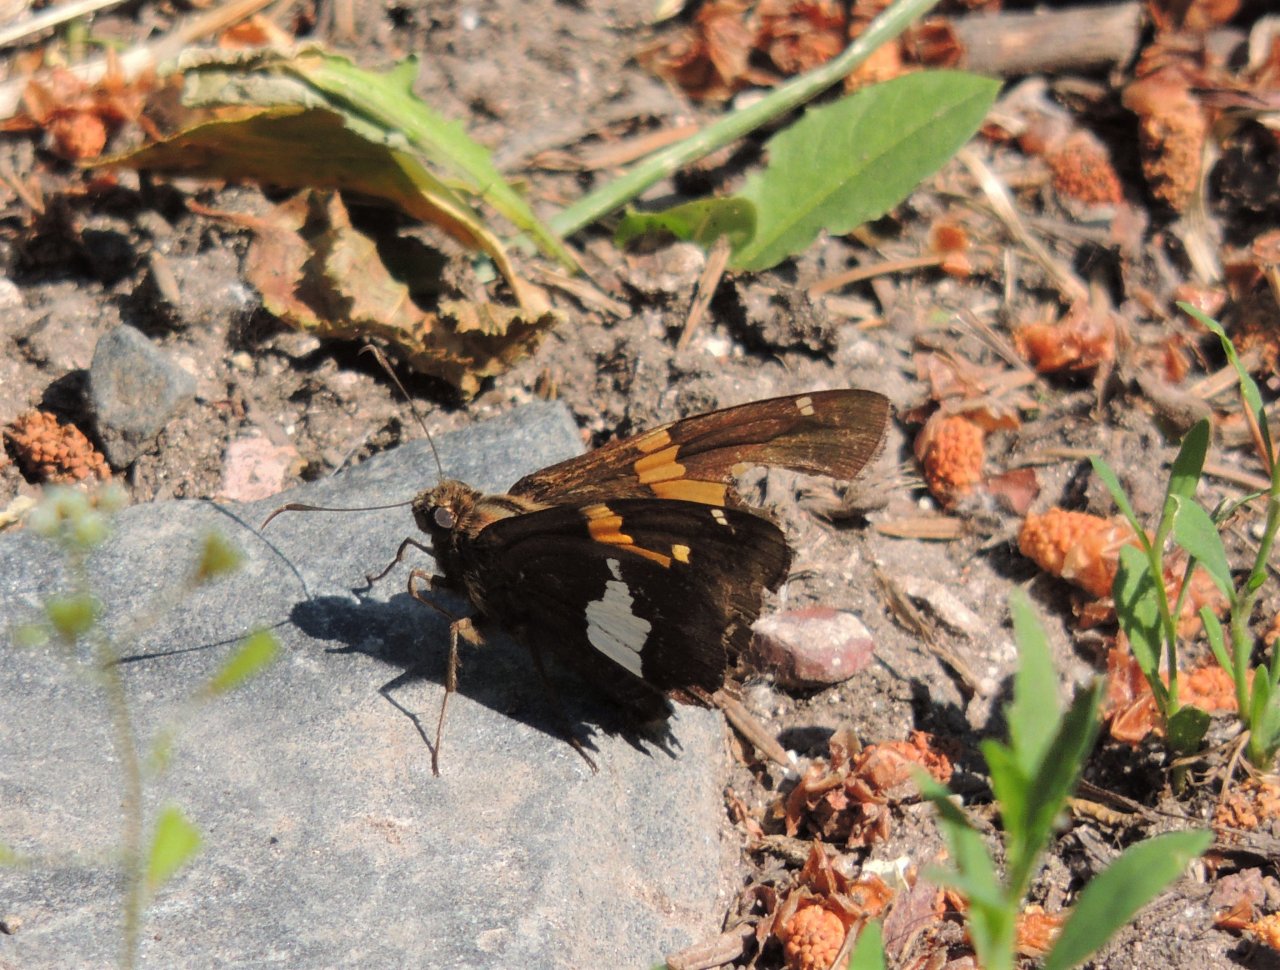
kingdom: Animalia
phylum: Arthropoda
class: Insecta
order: Lepidoptera
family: Hesperiidae
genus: Epargyreus
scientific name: Epargyreus clarus
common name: Silver-spotted Skipper
